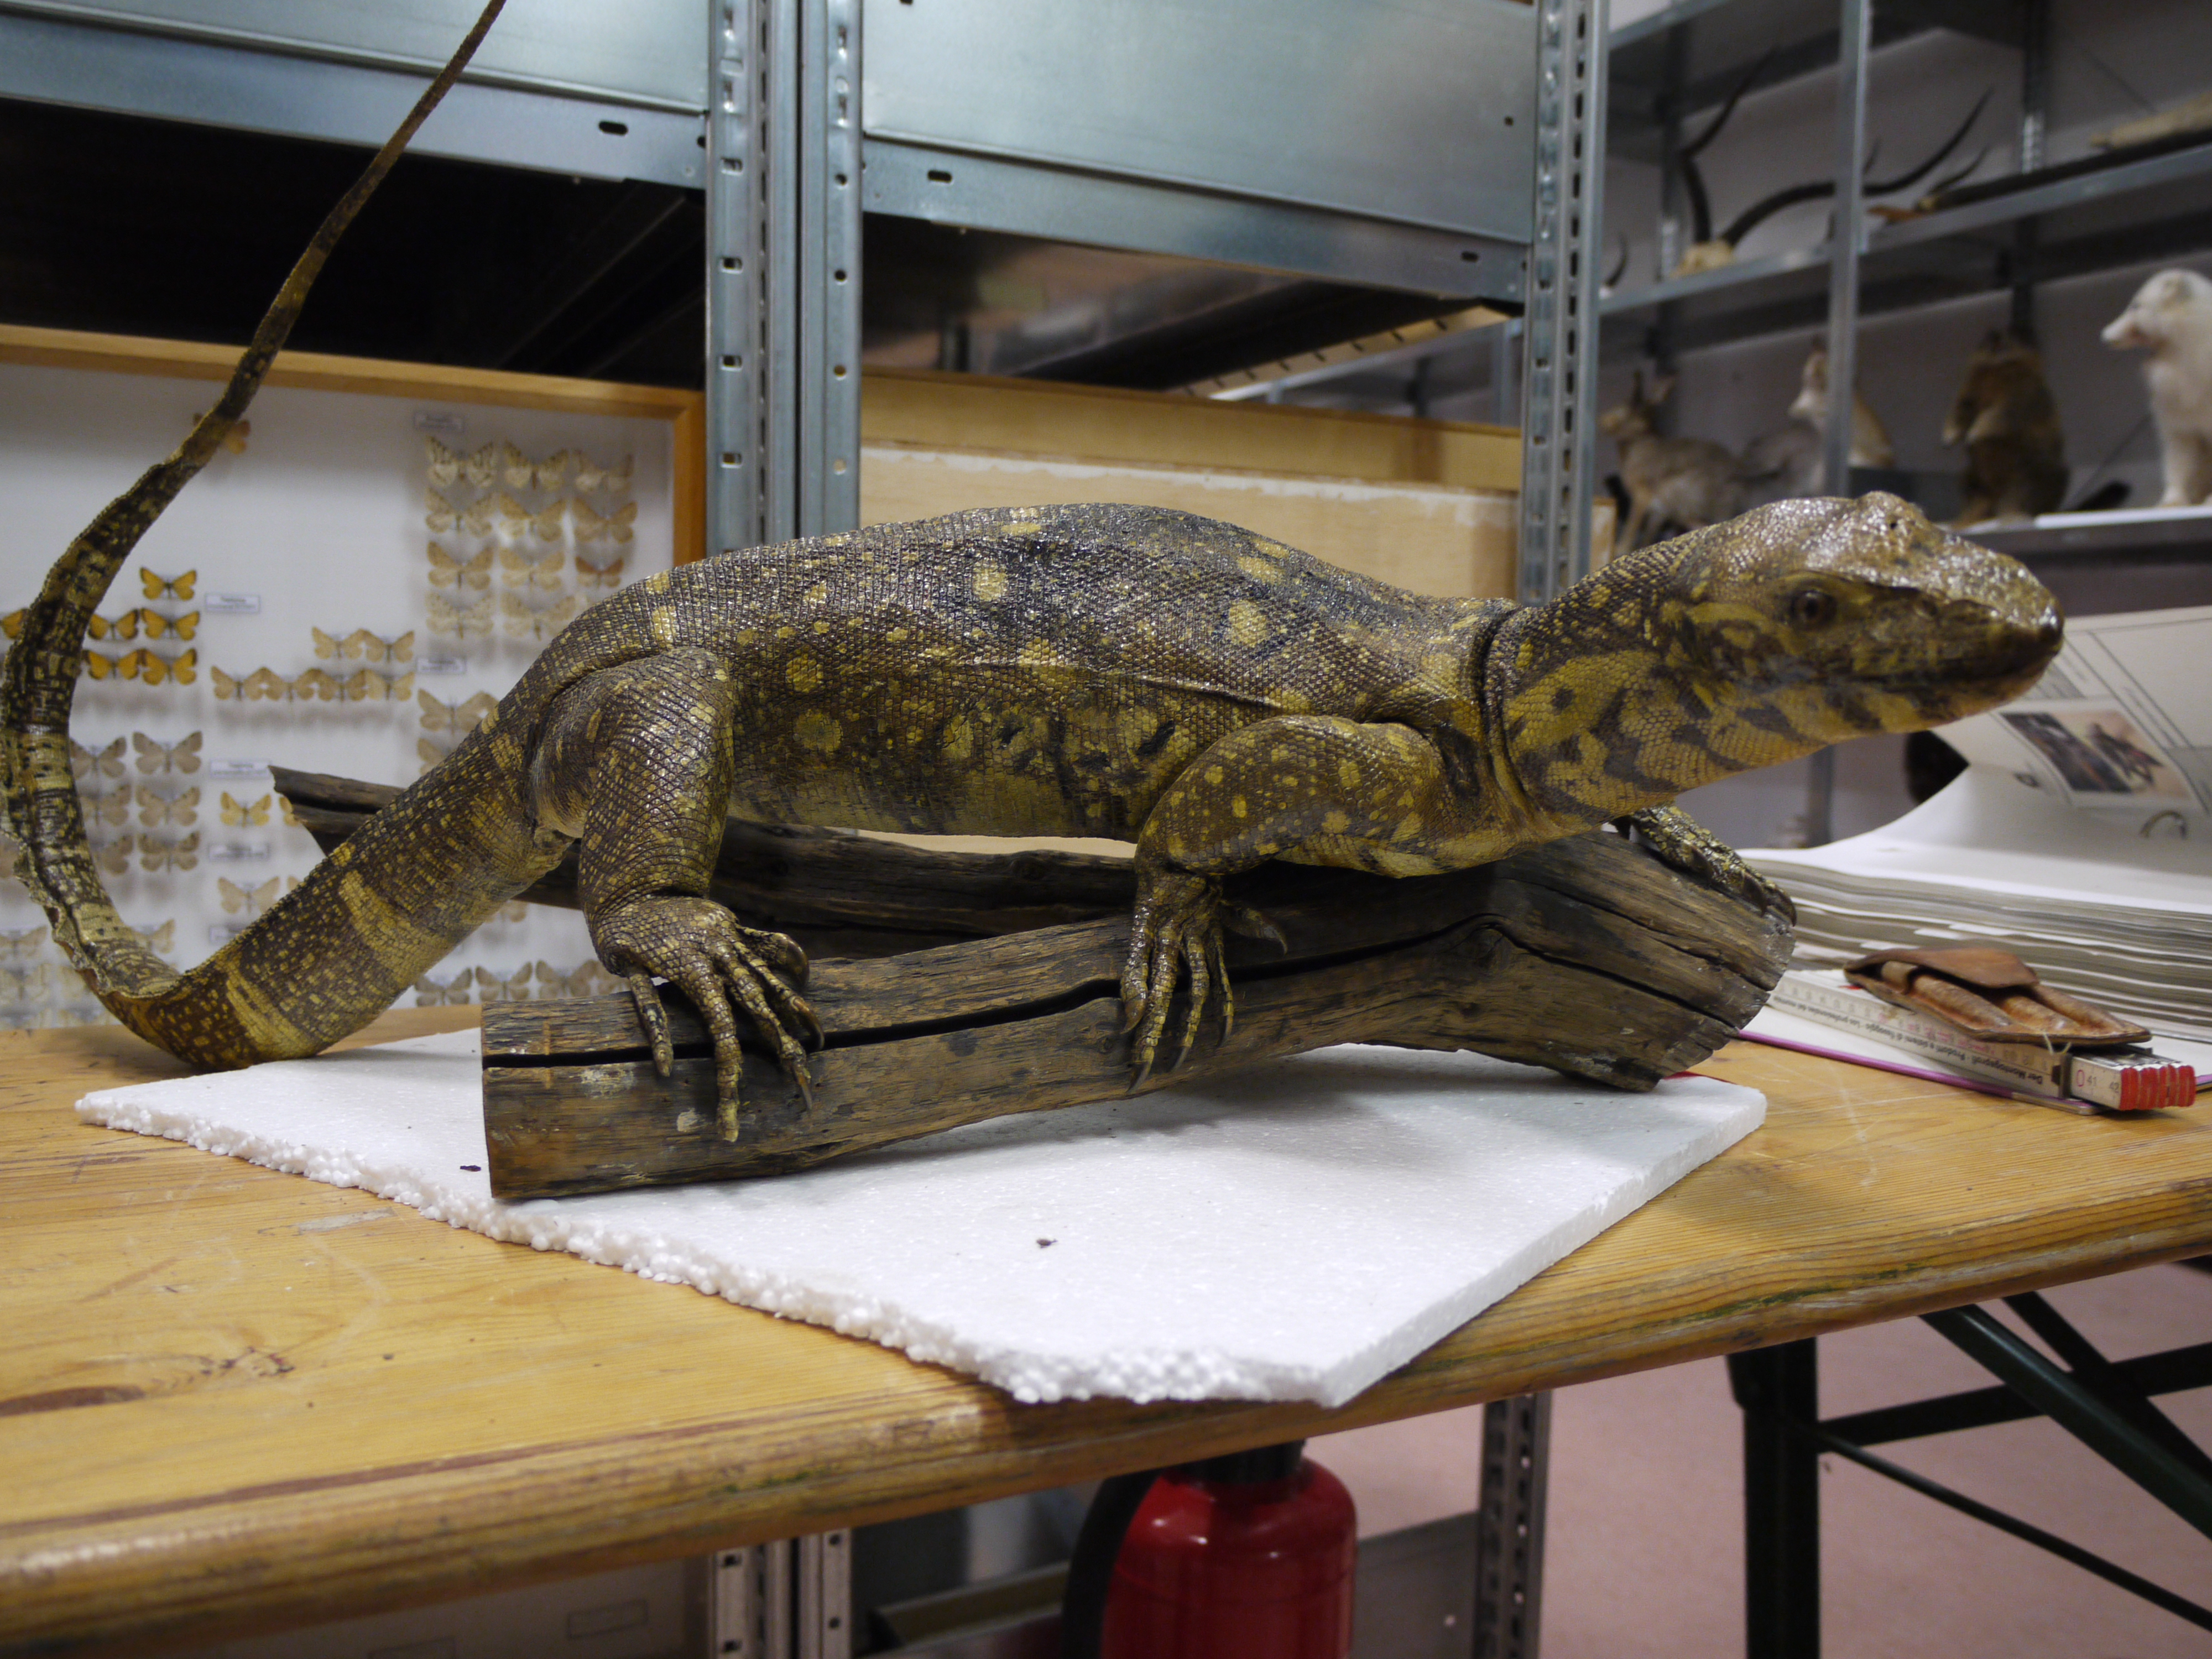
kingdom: Animalia
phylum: Chordata
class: Squamata
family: Varanidae
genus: Varanus
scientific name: Varanus niloticus
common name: Nile monitor
